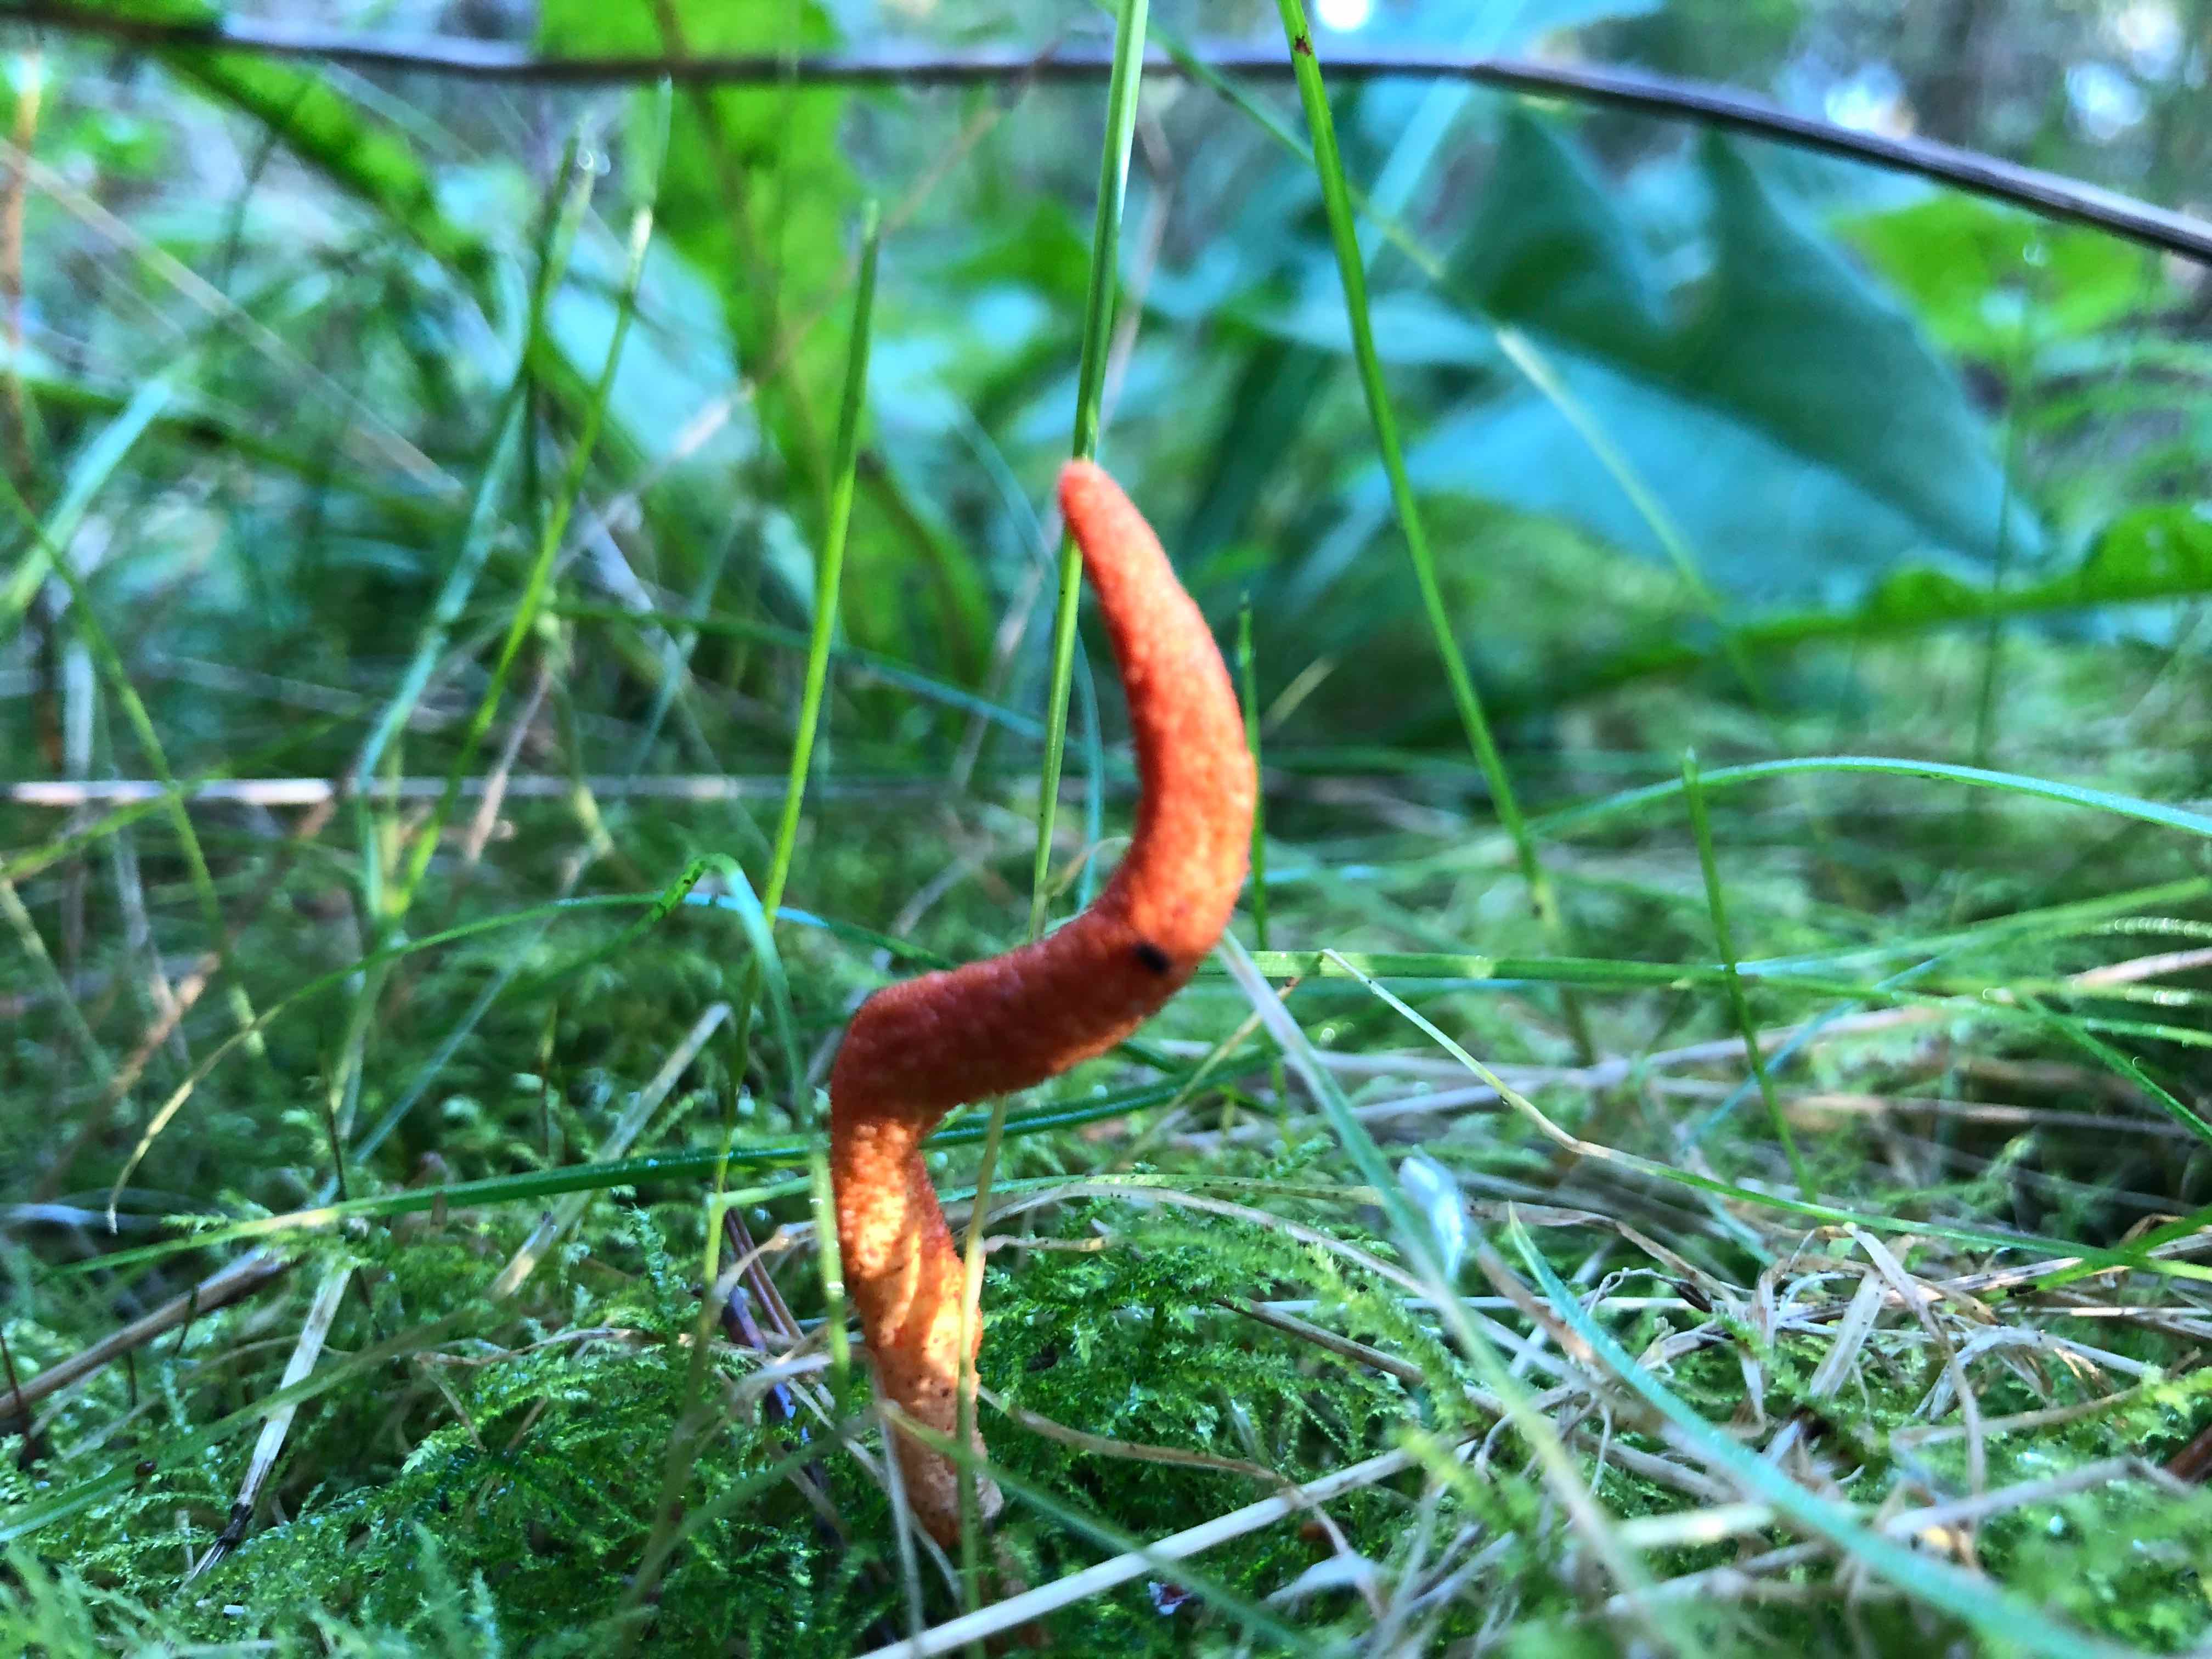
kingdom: Fungi
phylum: Ascomycota
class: Sordariomycetes
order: Hypocreales
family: Cordycipitaceae
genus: Cordyceps
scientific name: Cordyceps militaris
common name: puppe-snyltekølle
